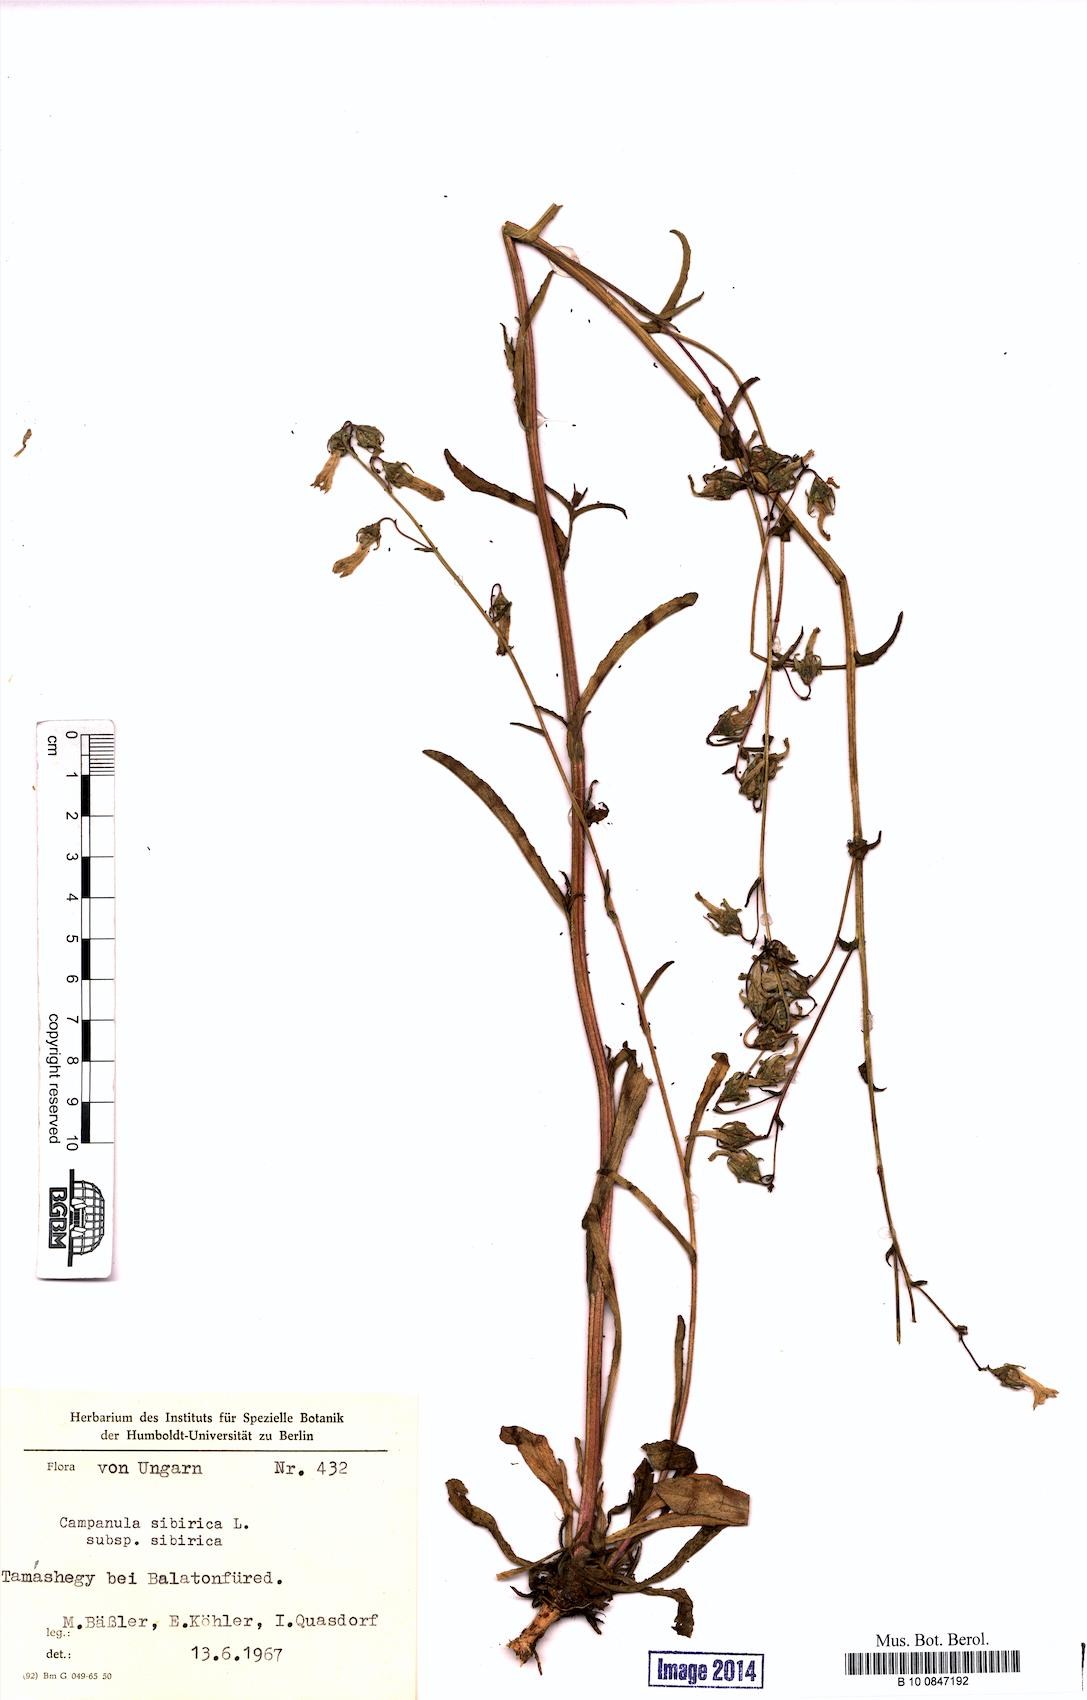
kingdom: Plantae
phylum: Tracheophyta
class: Magnoliopsida
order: Asterales
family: Campanulaceae
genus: Campanula
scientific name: Campanula sibirica
